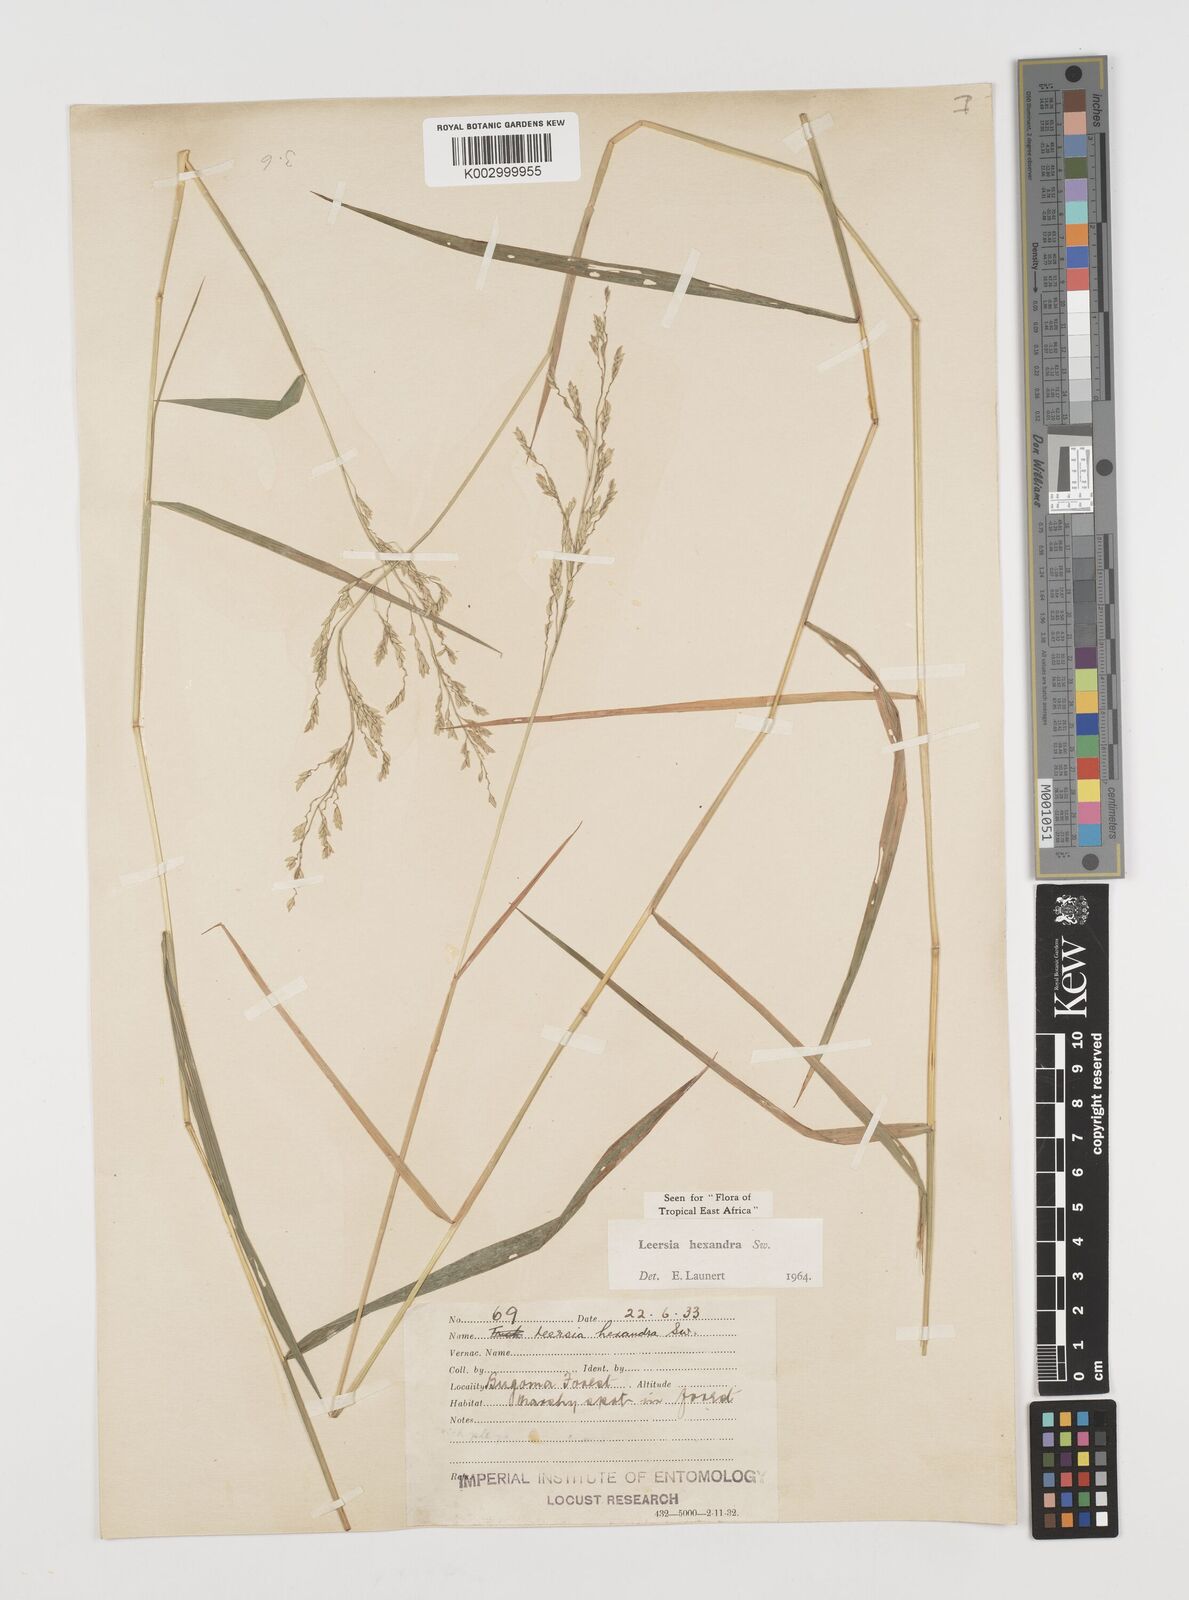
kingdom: Plantae
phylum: Tracheophyta
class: Liliopsida
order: Poales
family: Poaceae
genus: Leersia
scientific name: Leersia hexandra
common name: Southern cut grass
